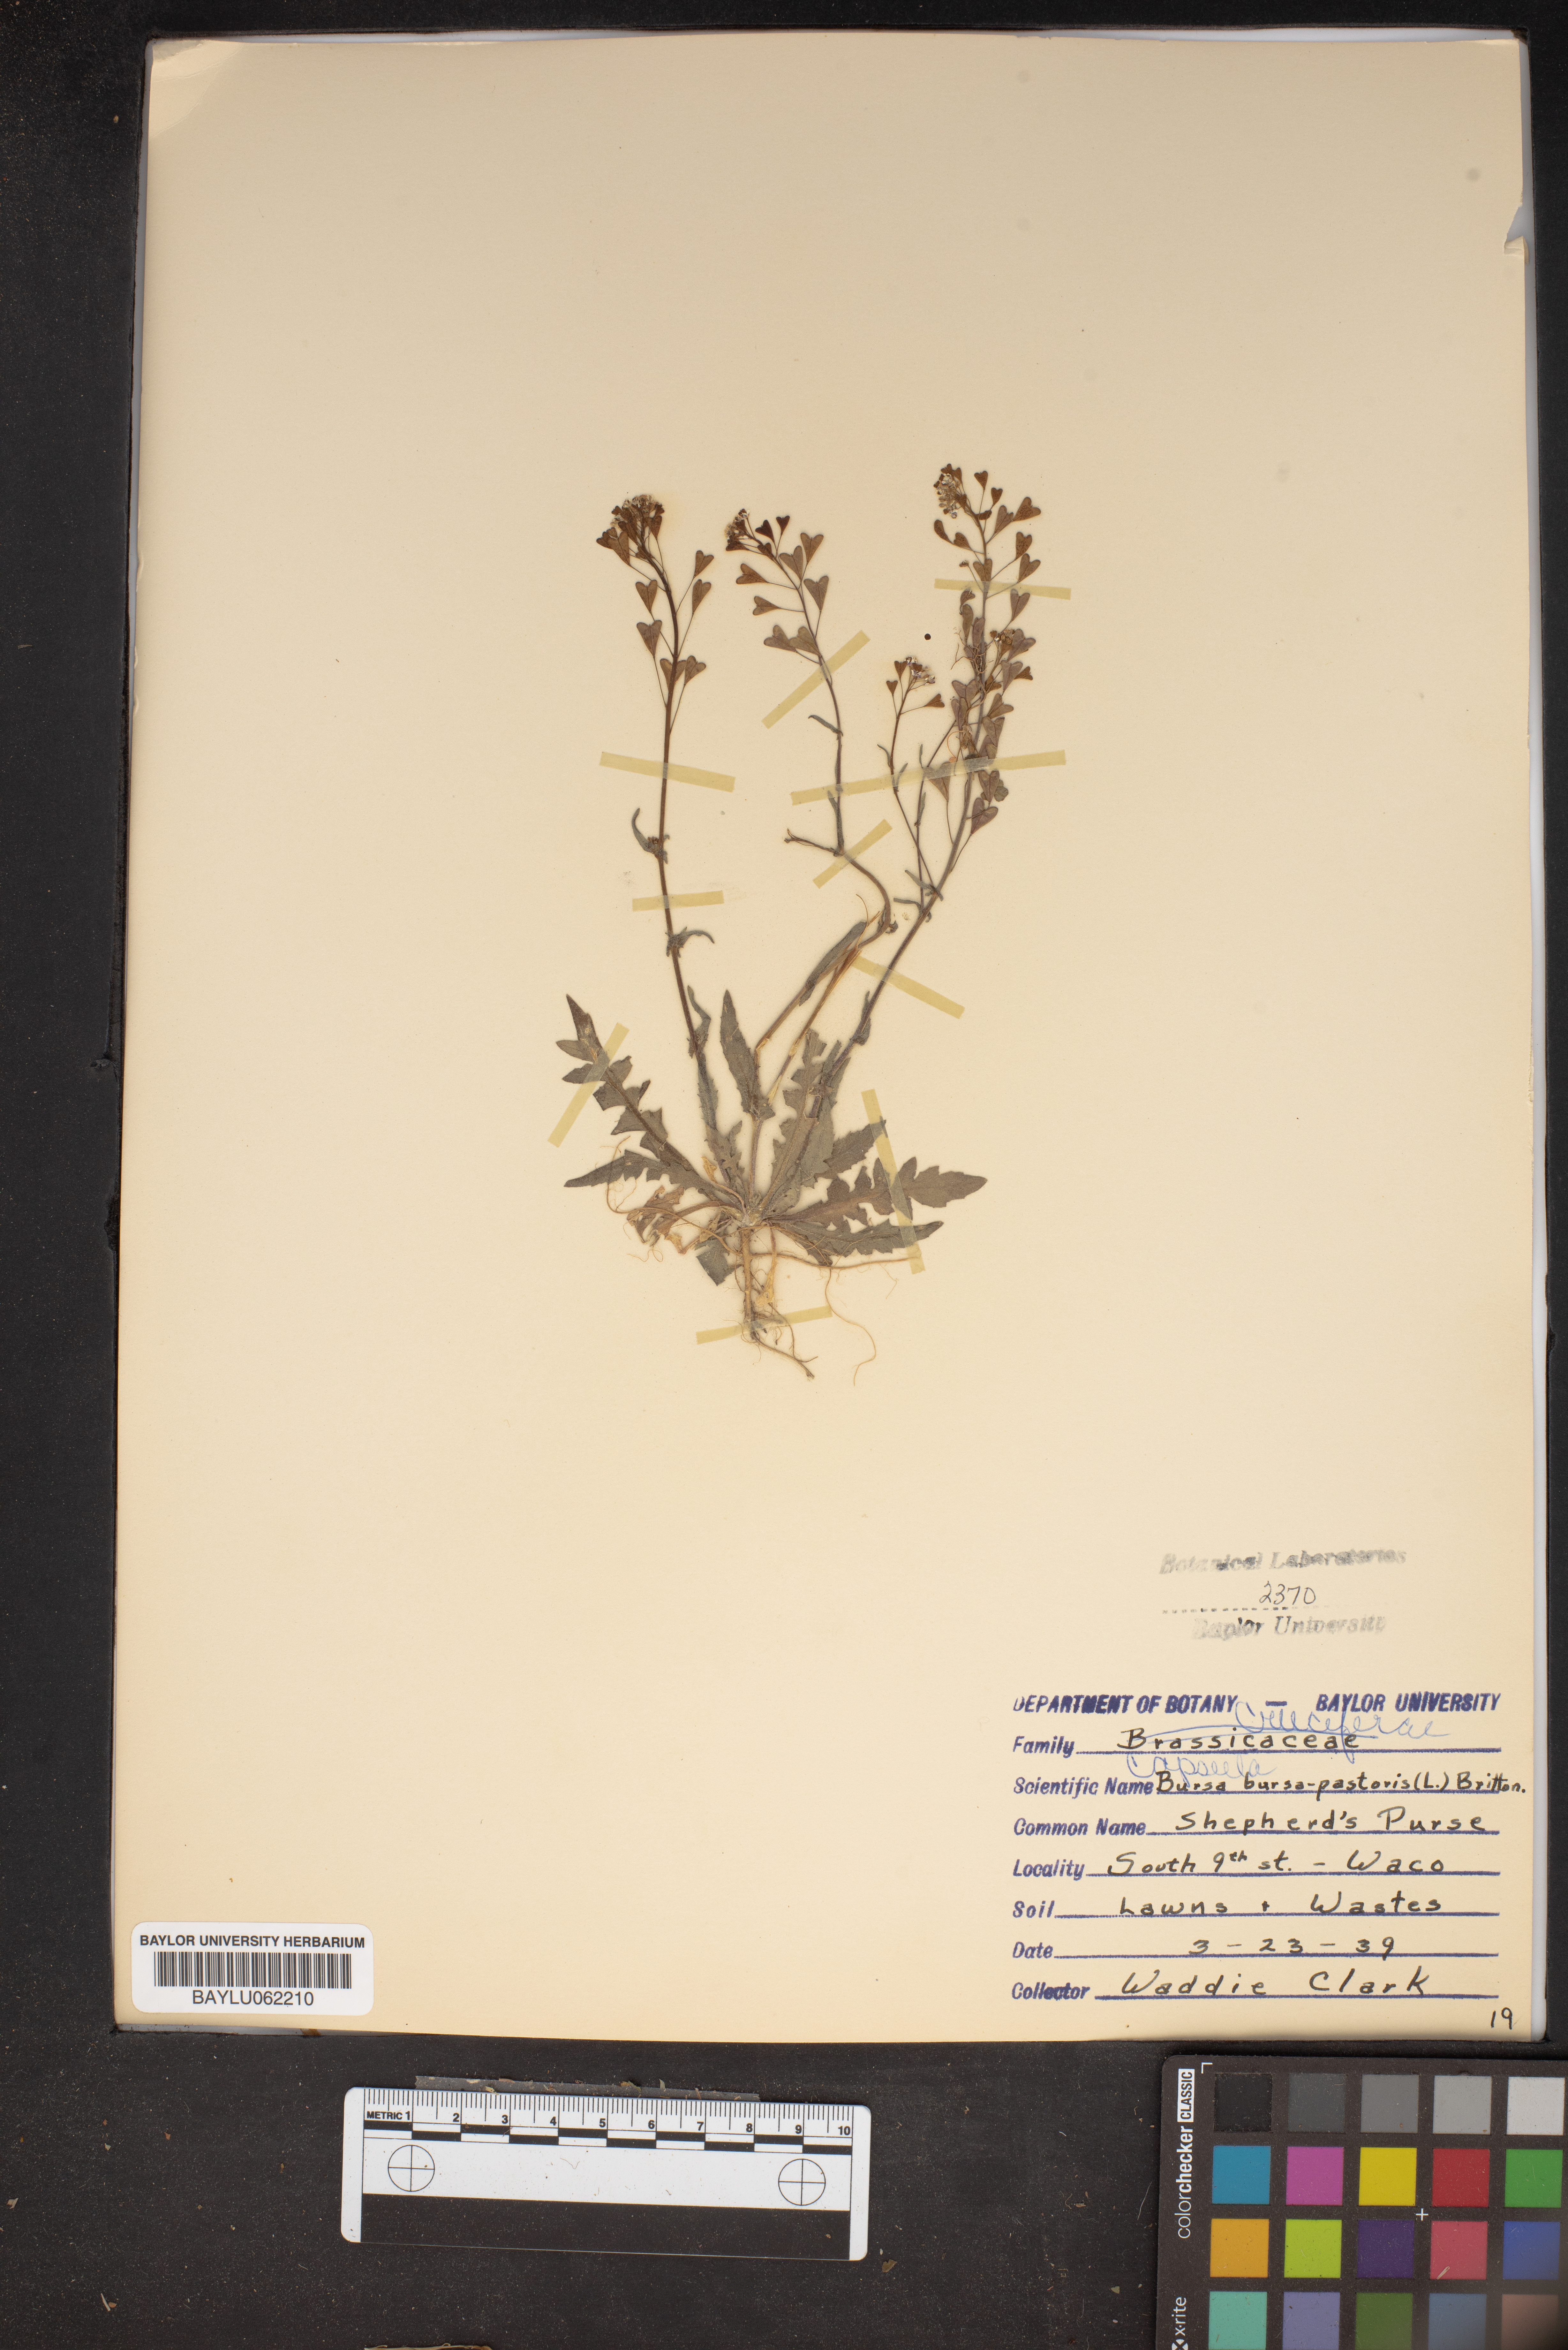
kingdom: Plantae
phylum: Tracheophyta
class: Magnoliopsida
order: Brassicales
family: Brassicaceae
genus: Capsella
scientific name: Capsella bursa-pastoris
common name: Shepherd's purse
